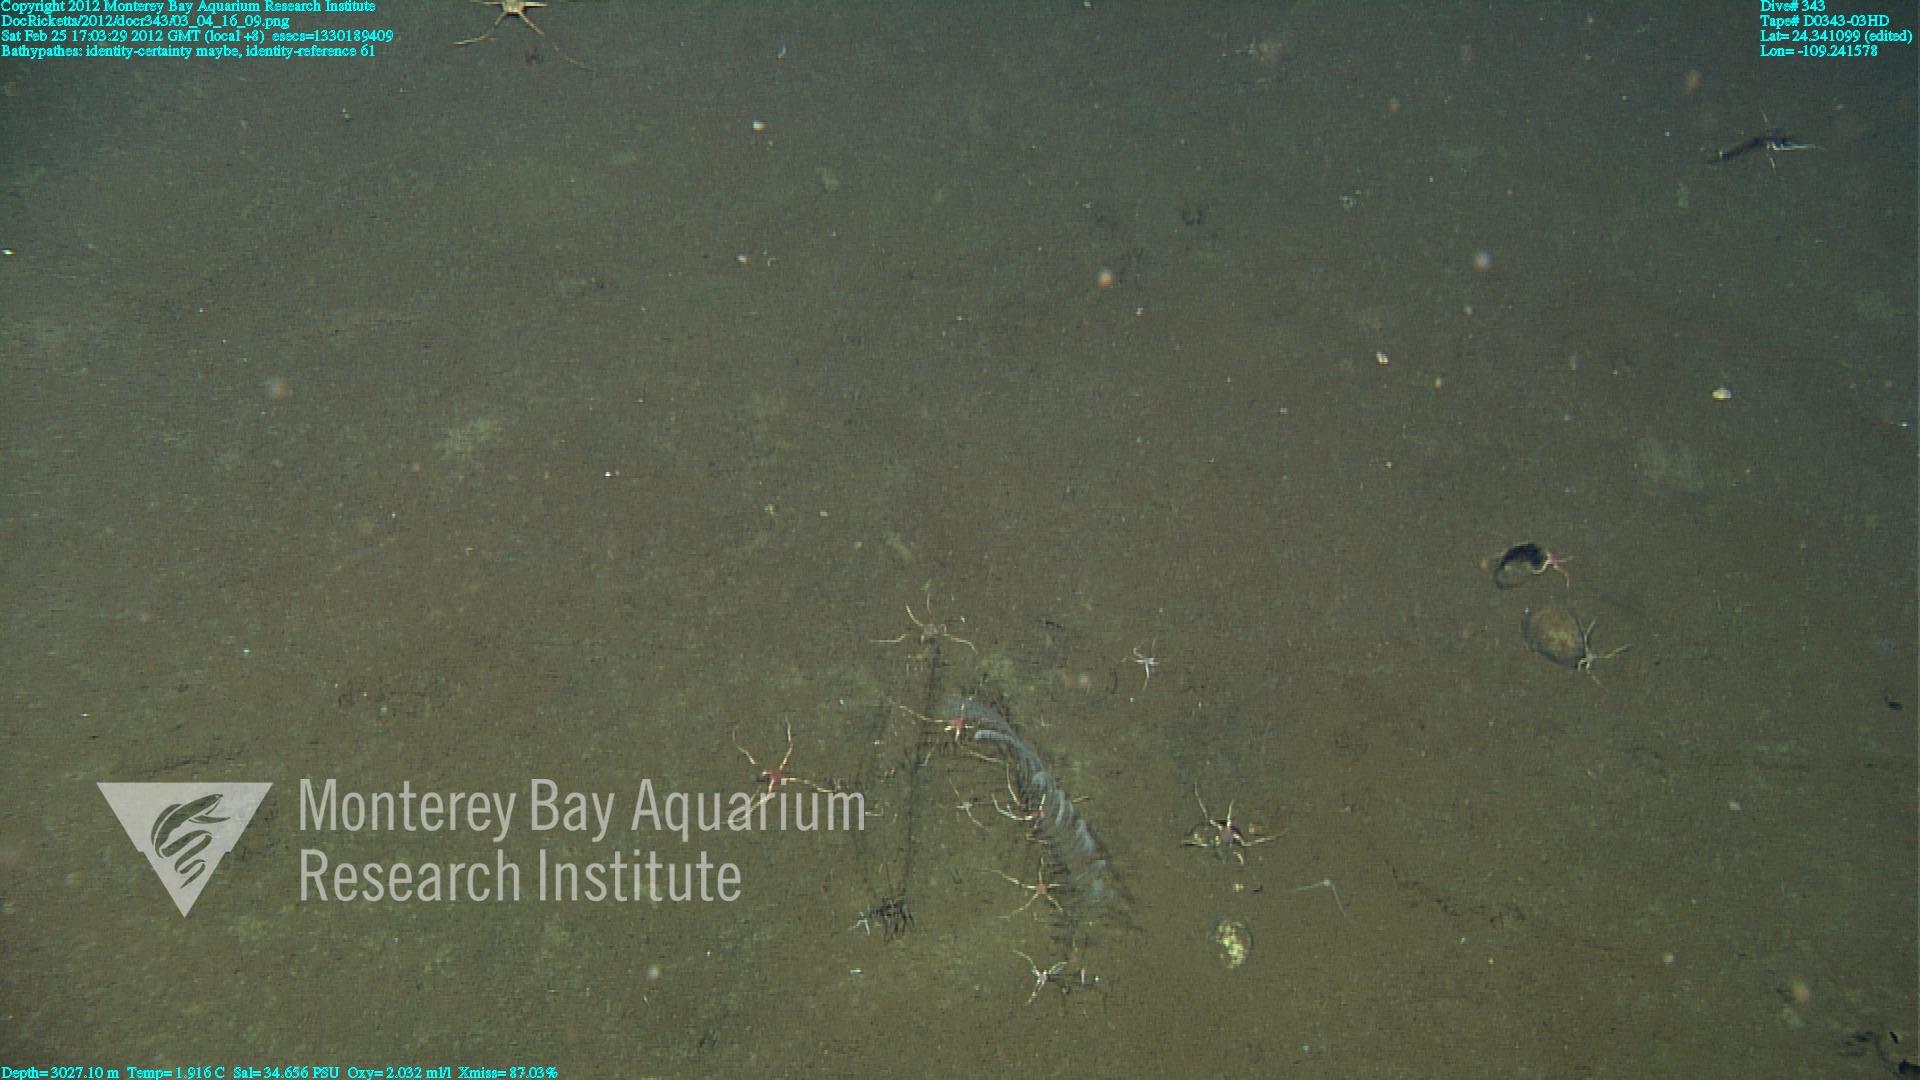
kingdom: Animalia
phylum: Cnidaria
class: Anthozoa
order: Antipatharia
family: Schizopathidae
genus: Bathypathes
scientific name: Bathypathes
